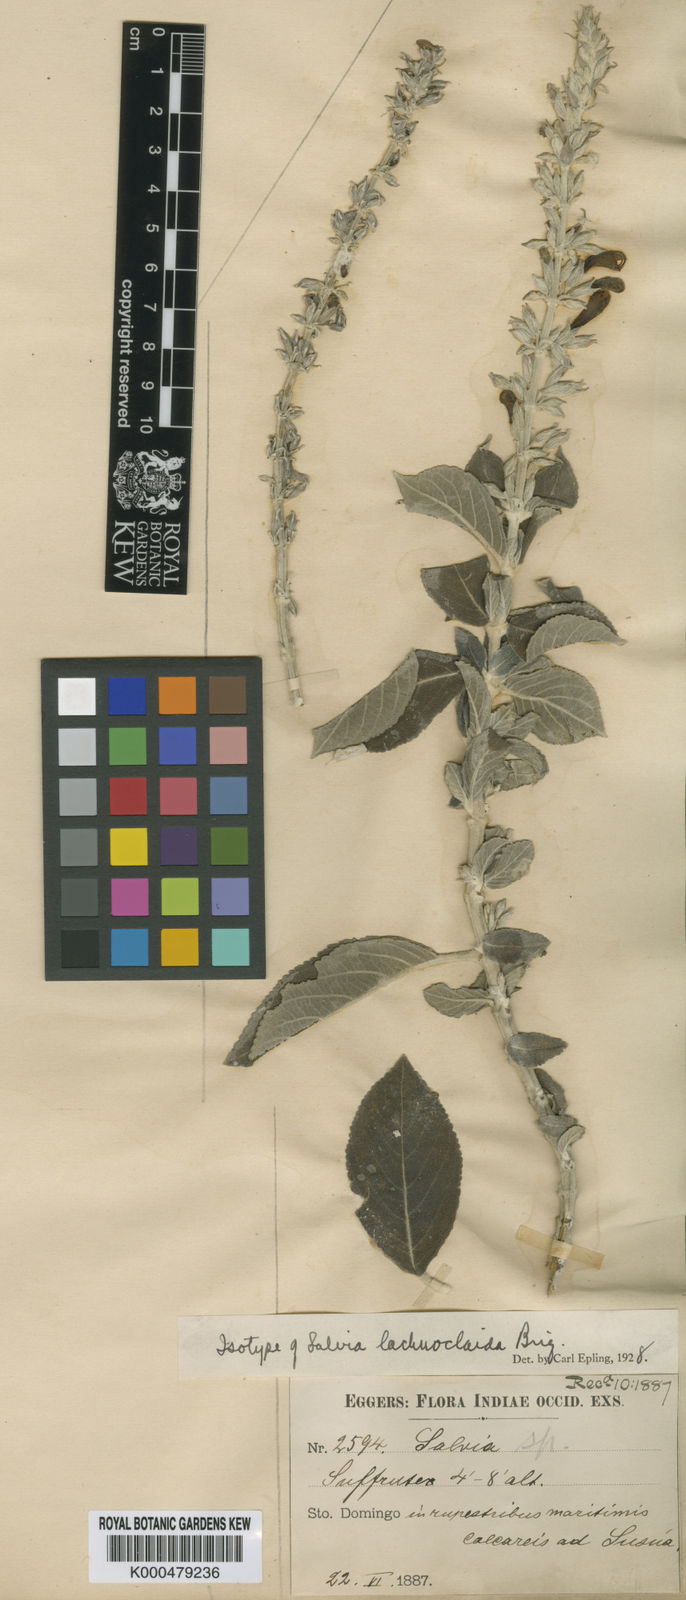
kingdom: Plantae
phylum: Tracheophyta
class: Magnoliopsida
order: Lamiales
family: Lamiaceae
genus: Salvia
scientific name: Salvia
